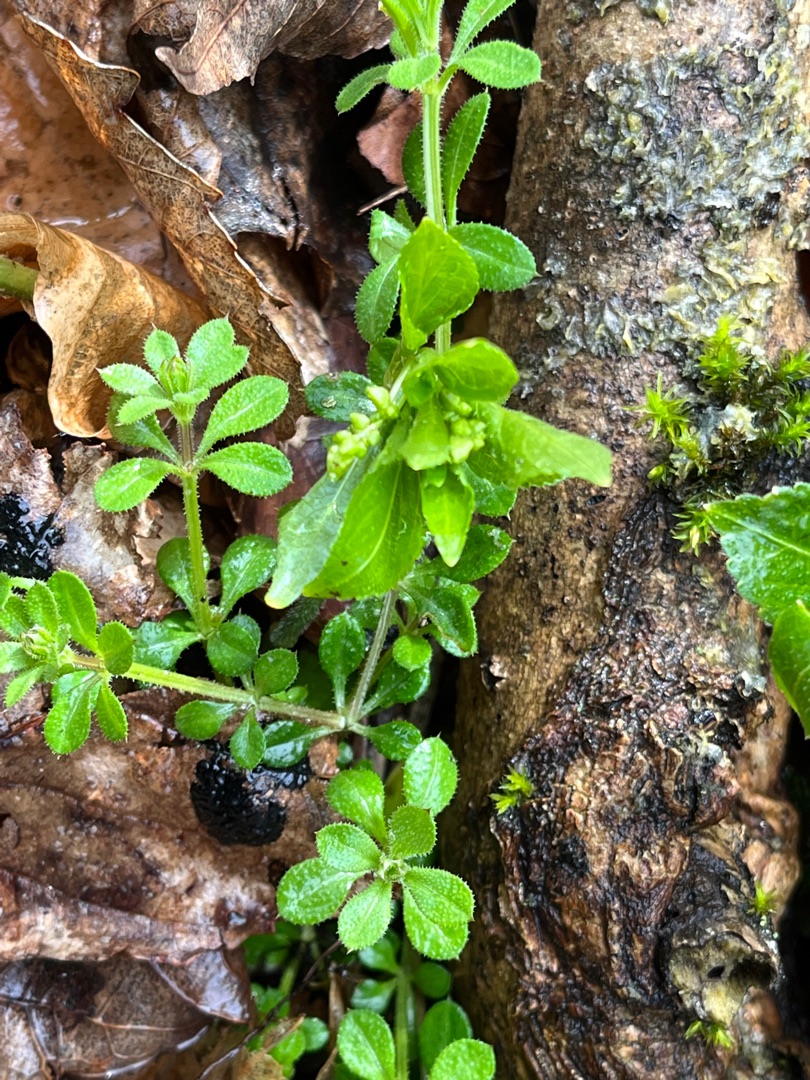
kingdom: Plantae
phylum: Tracheophyta
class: Magnoliopsida
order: Gentianales
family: Rubiaceae
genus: Galium
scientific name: Galium aparine
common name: Burre-snerre
